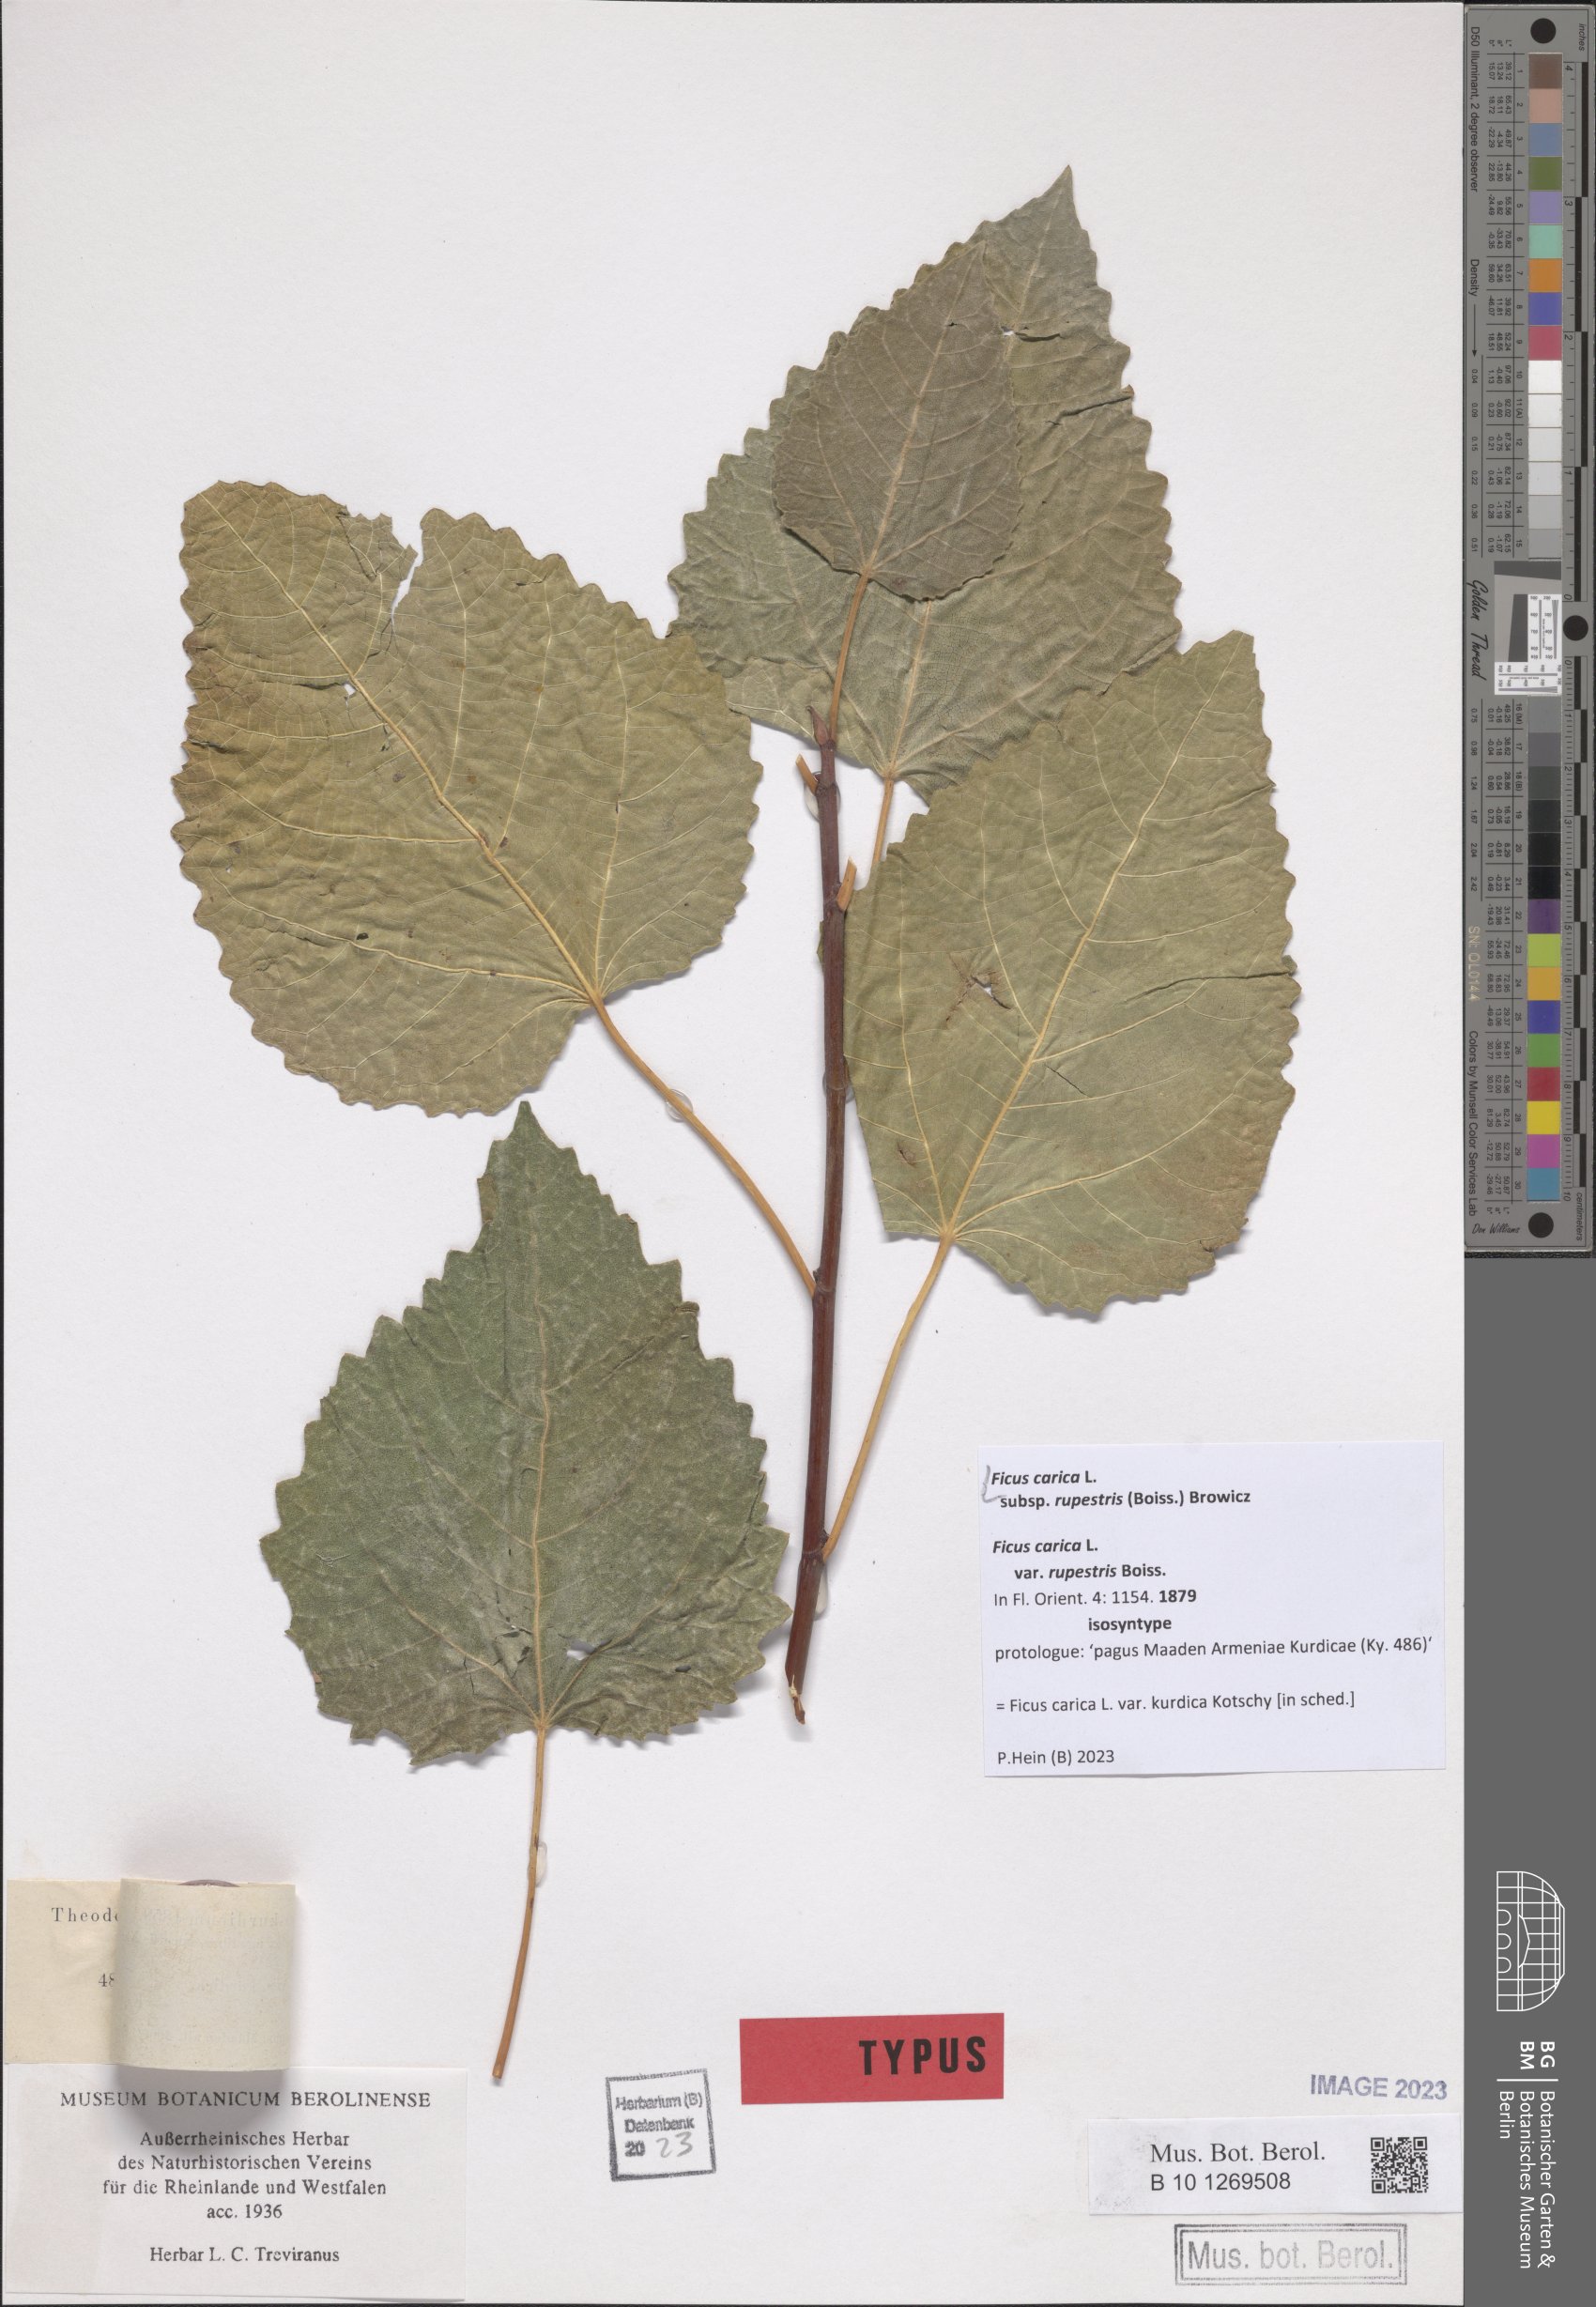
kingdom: Plantae
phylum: Tracheophyta
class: Magnoliopsida
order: Rosales
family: Moraceae
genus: Ficus
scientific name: Ficus carica
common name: Fig
